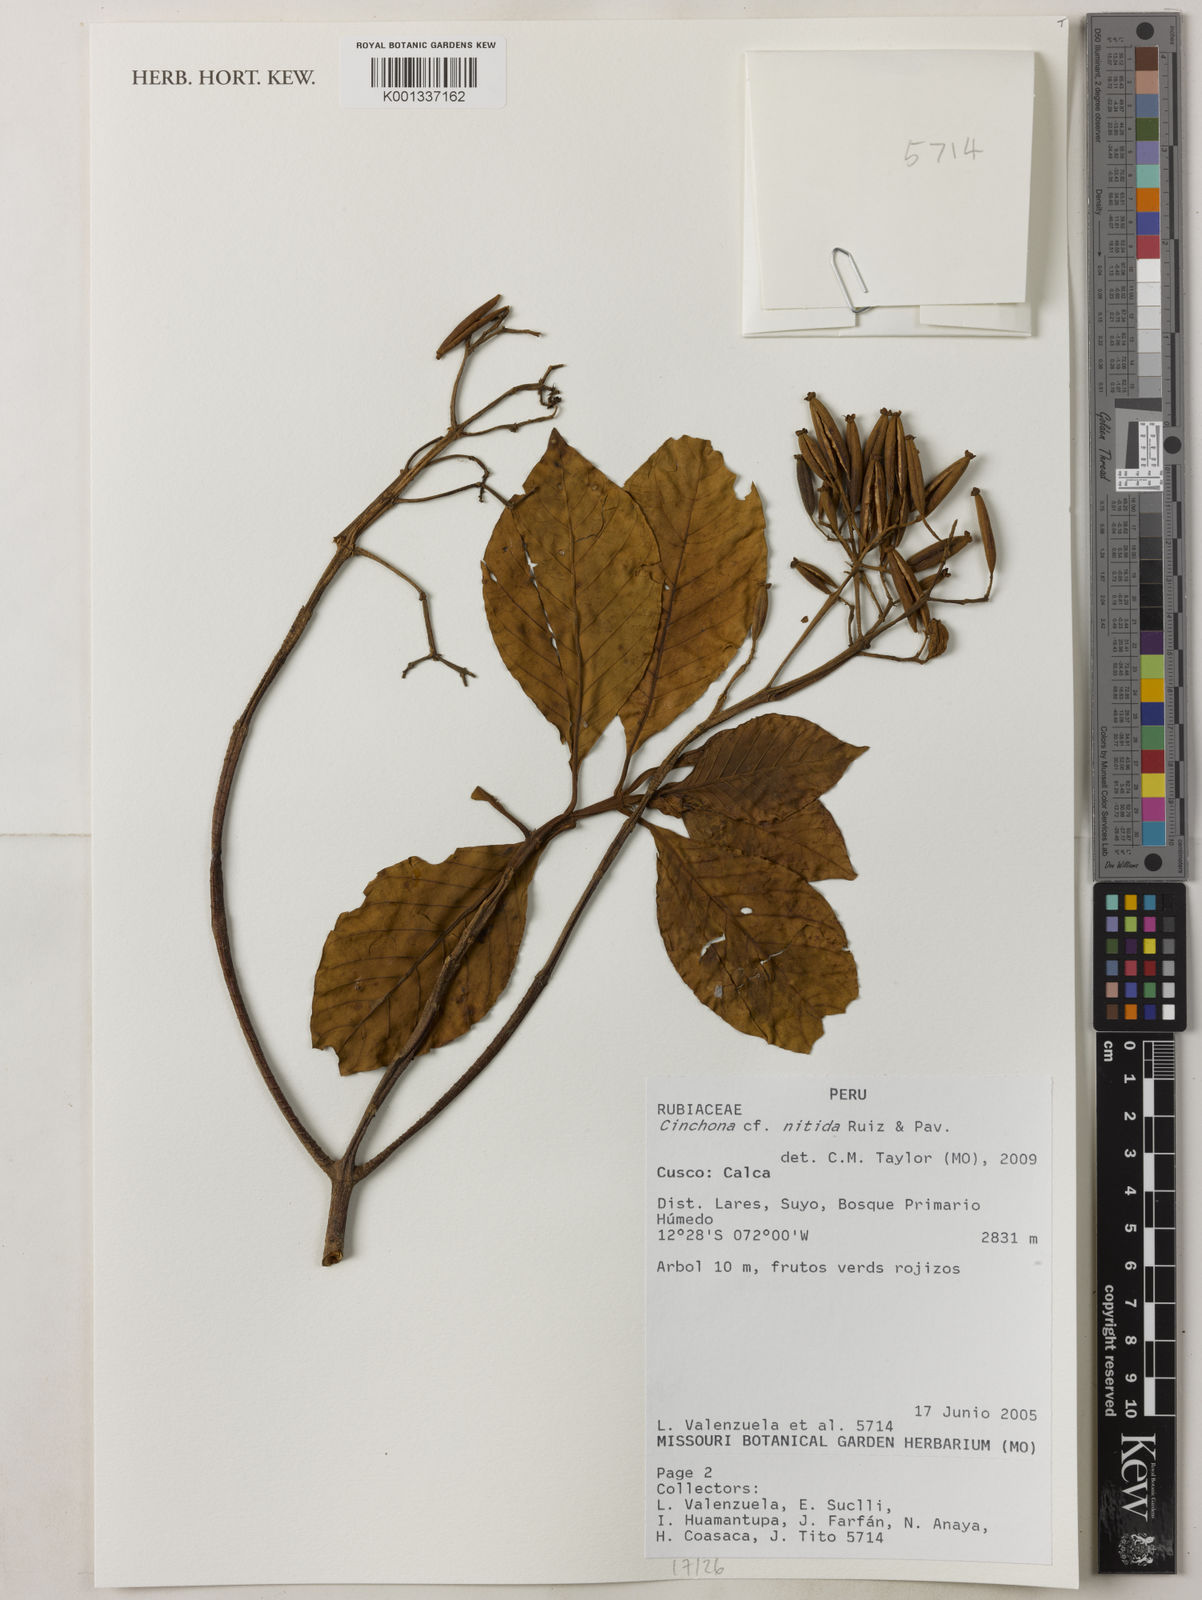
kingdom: Plantae
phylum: Tracheophyta
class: Magnoliopsida
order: Gentianales
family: Rubiaceae
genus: Cinchona
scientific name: Cinchona nitida
